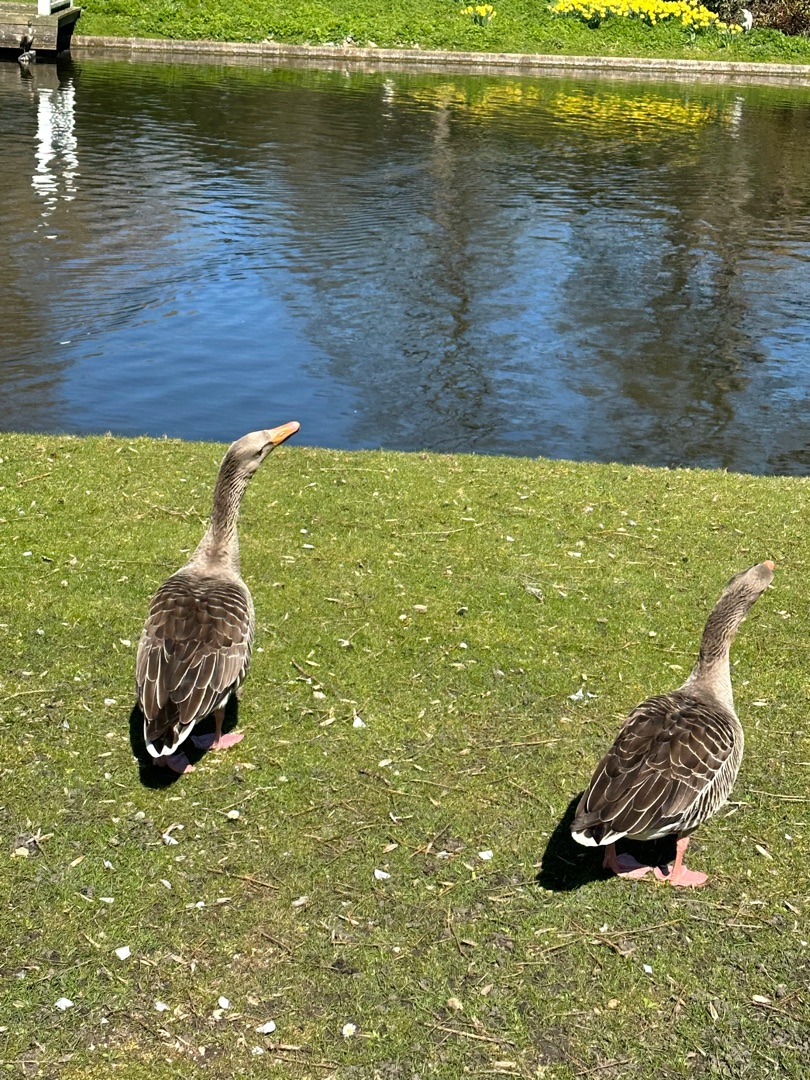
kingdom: Animalia
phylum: Chordata
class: Aves
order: Anseriformes
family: Anatidae
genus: Anser
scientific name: Anser anser
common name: Grågås
